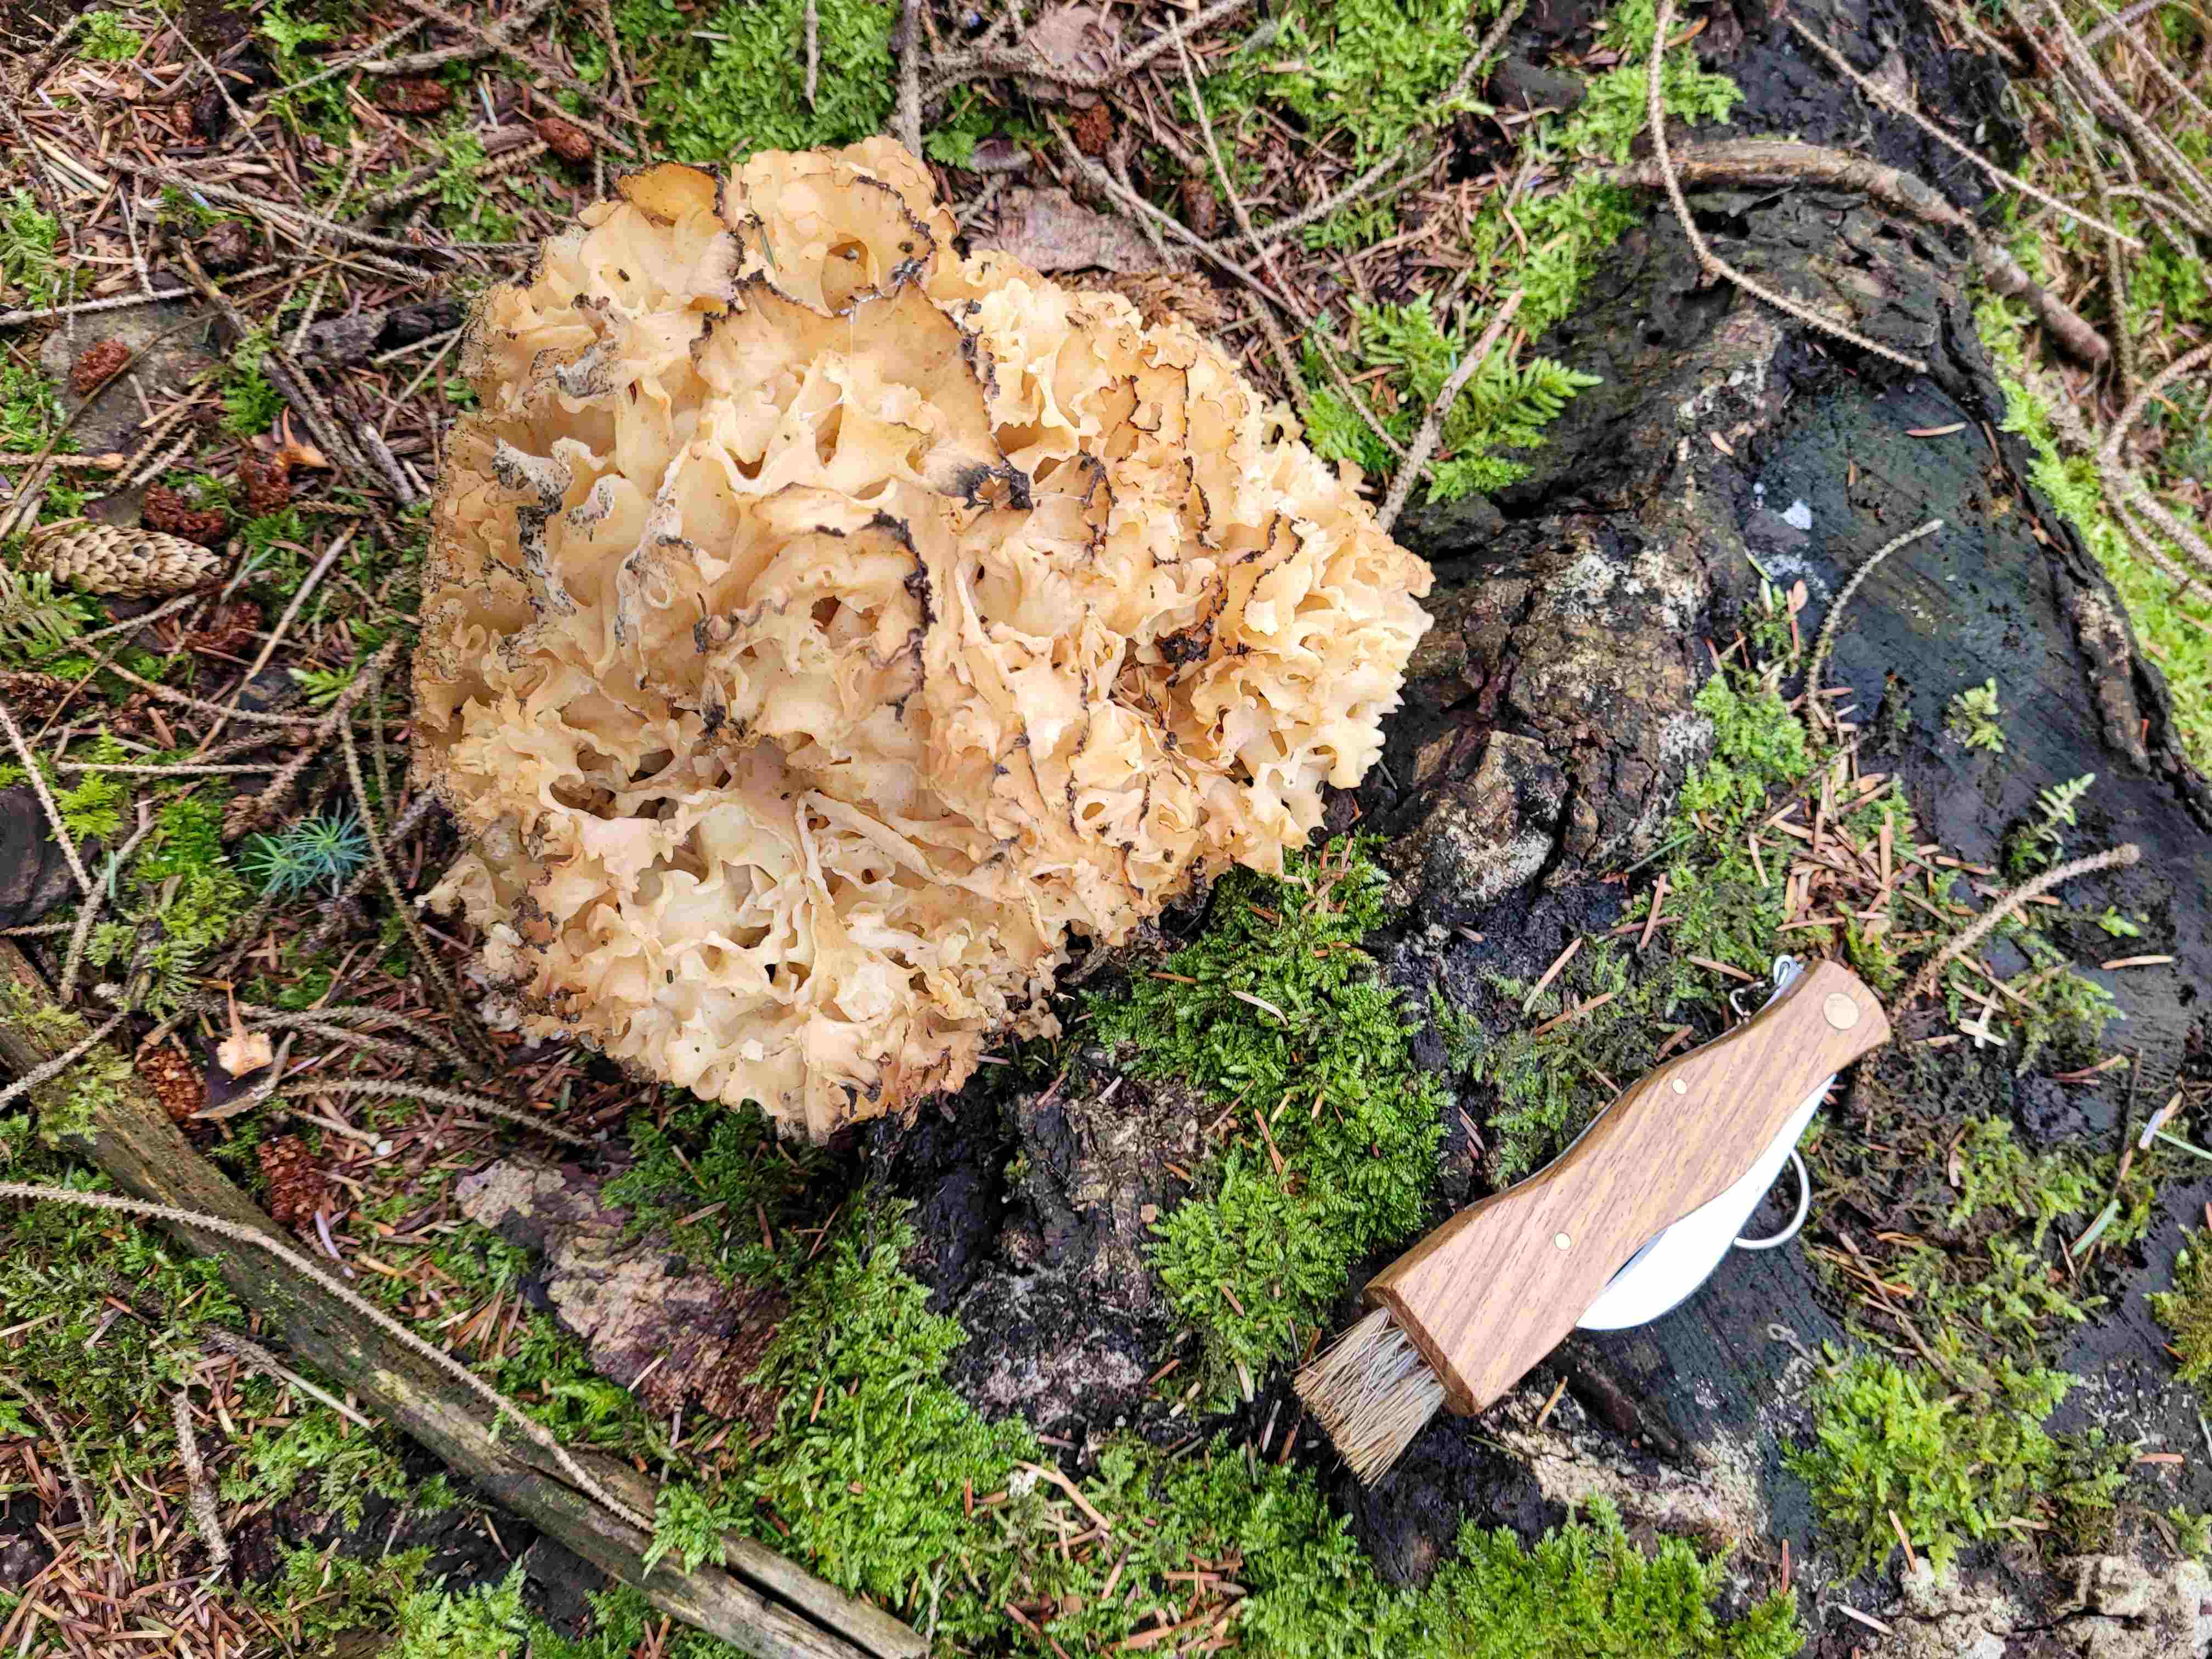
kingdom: Fungi
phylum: Basidiomycota
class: Agaricomycetes
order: Polyporales
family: Sparassidaceae
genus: Sparassis
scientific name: Sparassis crispa
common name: kruset blomkålssvamp
